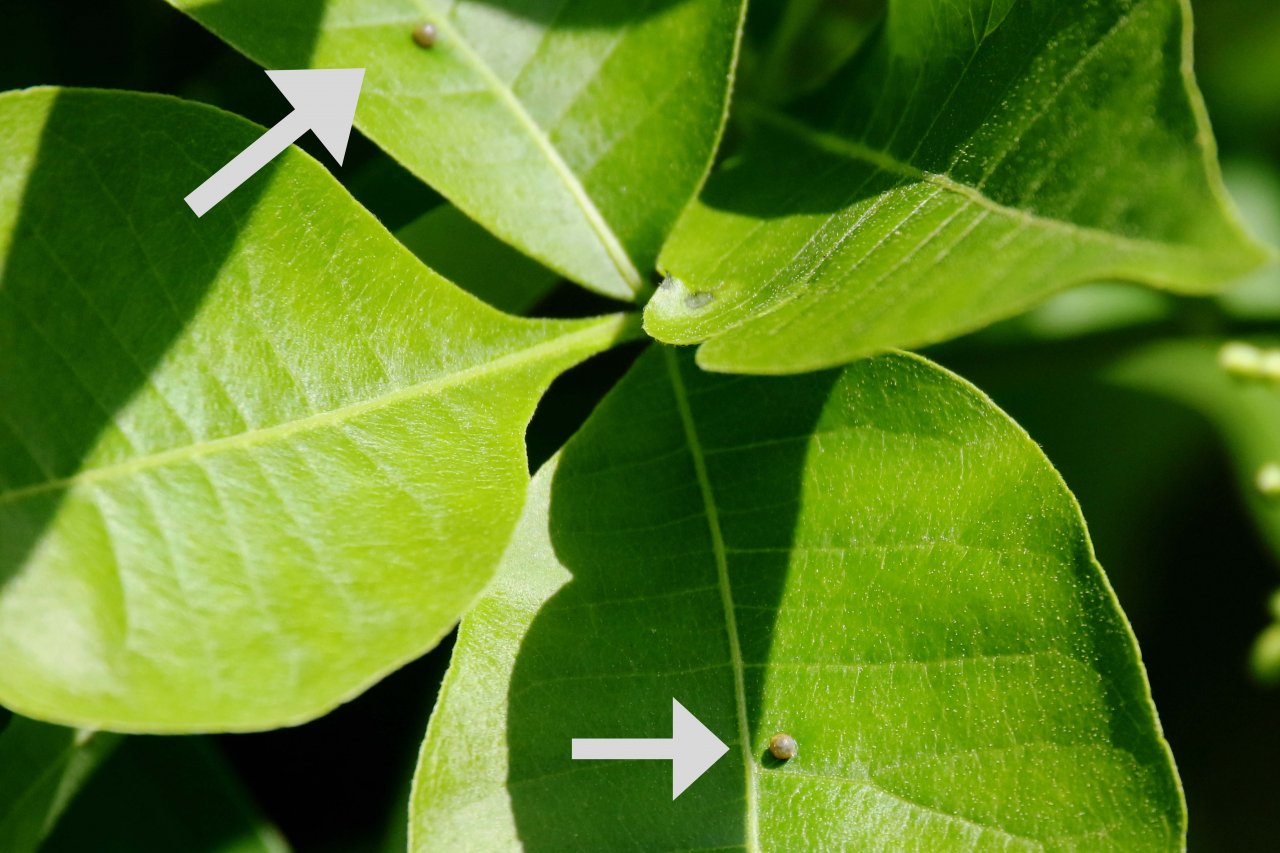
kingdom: Animalia
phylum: Arthropoda
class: Insecta
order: Lepidoptera
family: Papilionidae
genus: Papilio
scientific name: Papilio cresphontes
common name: Eastern Giant Swallowtail
